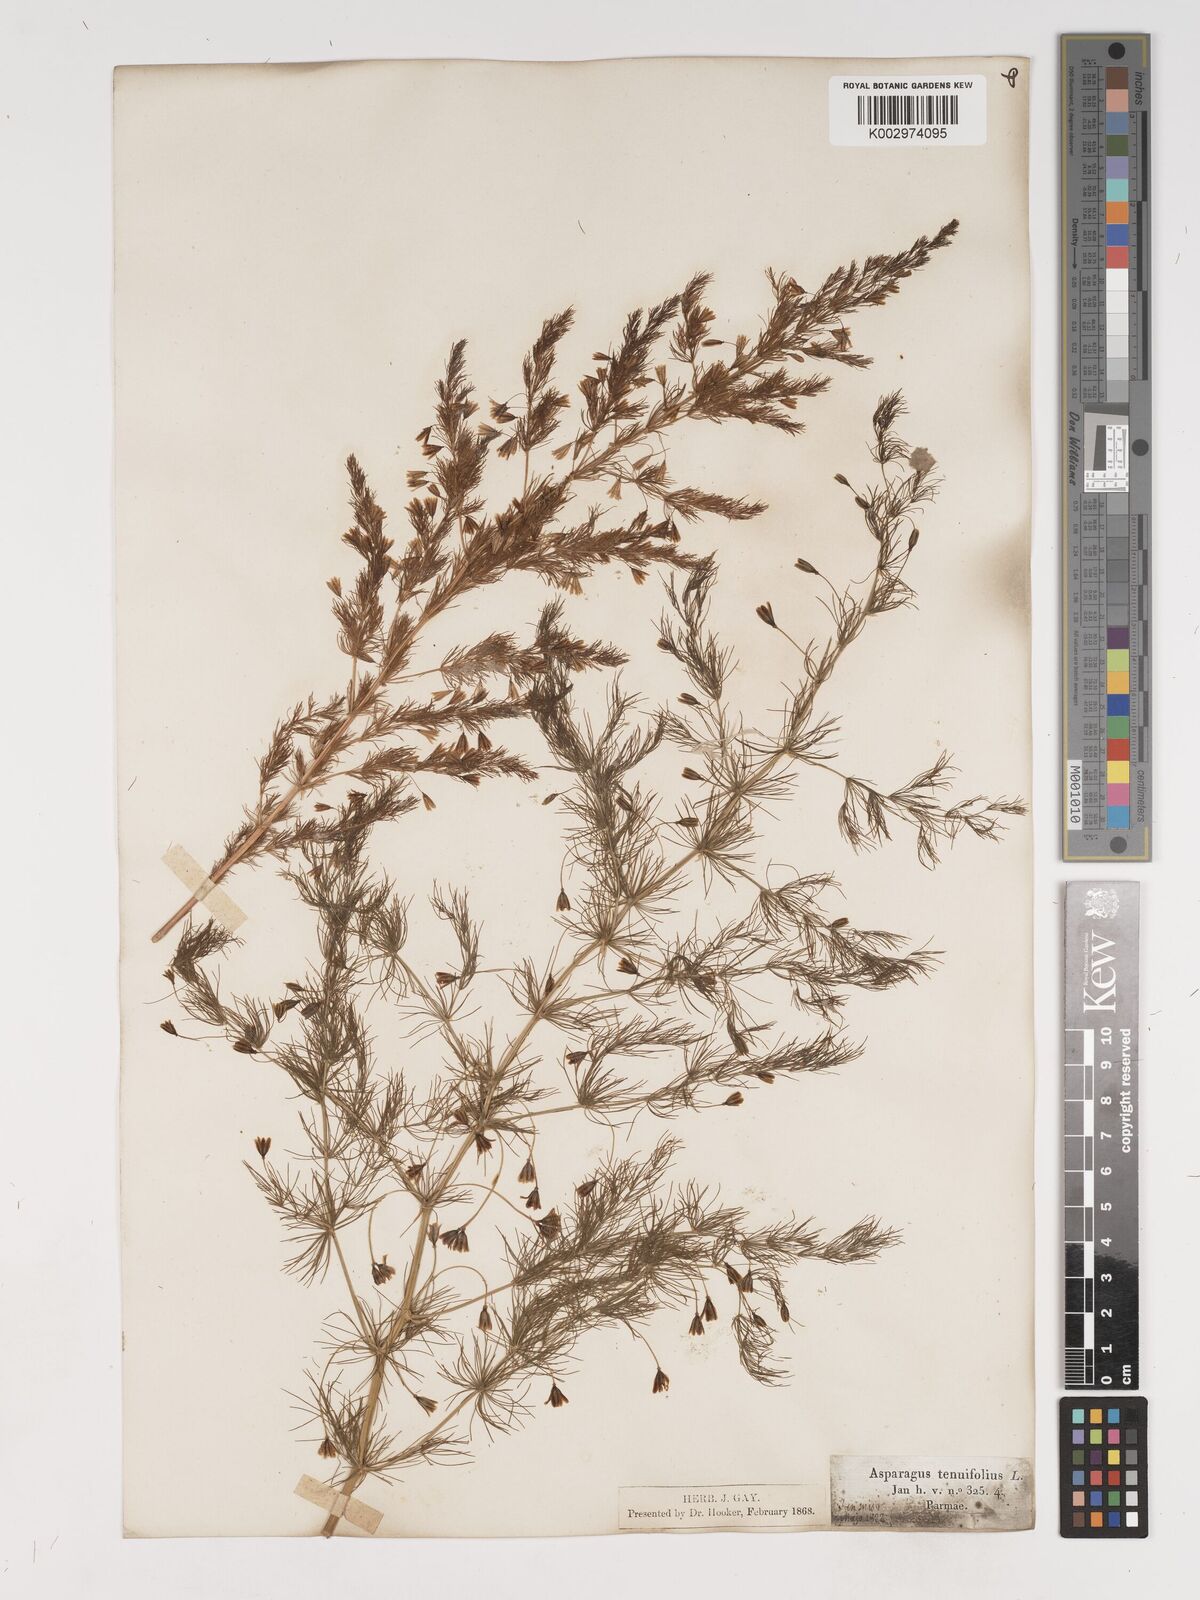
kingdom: Plantae
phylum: Tracheophyta
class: Liliopsida
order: Asparagales
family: Asparagaceae
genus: Asparagus
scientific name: Asparagus tenuifolius
